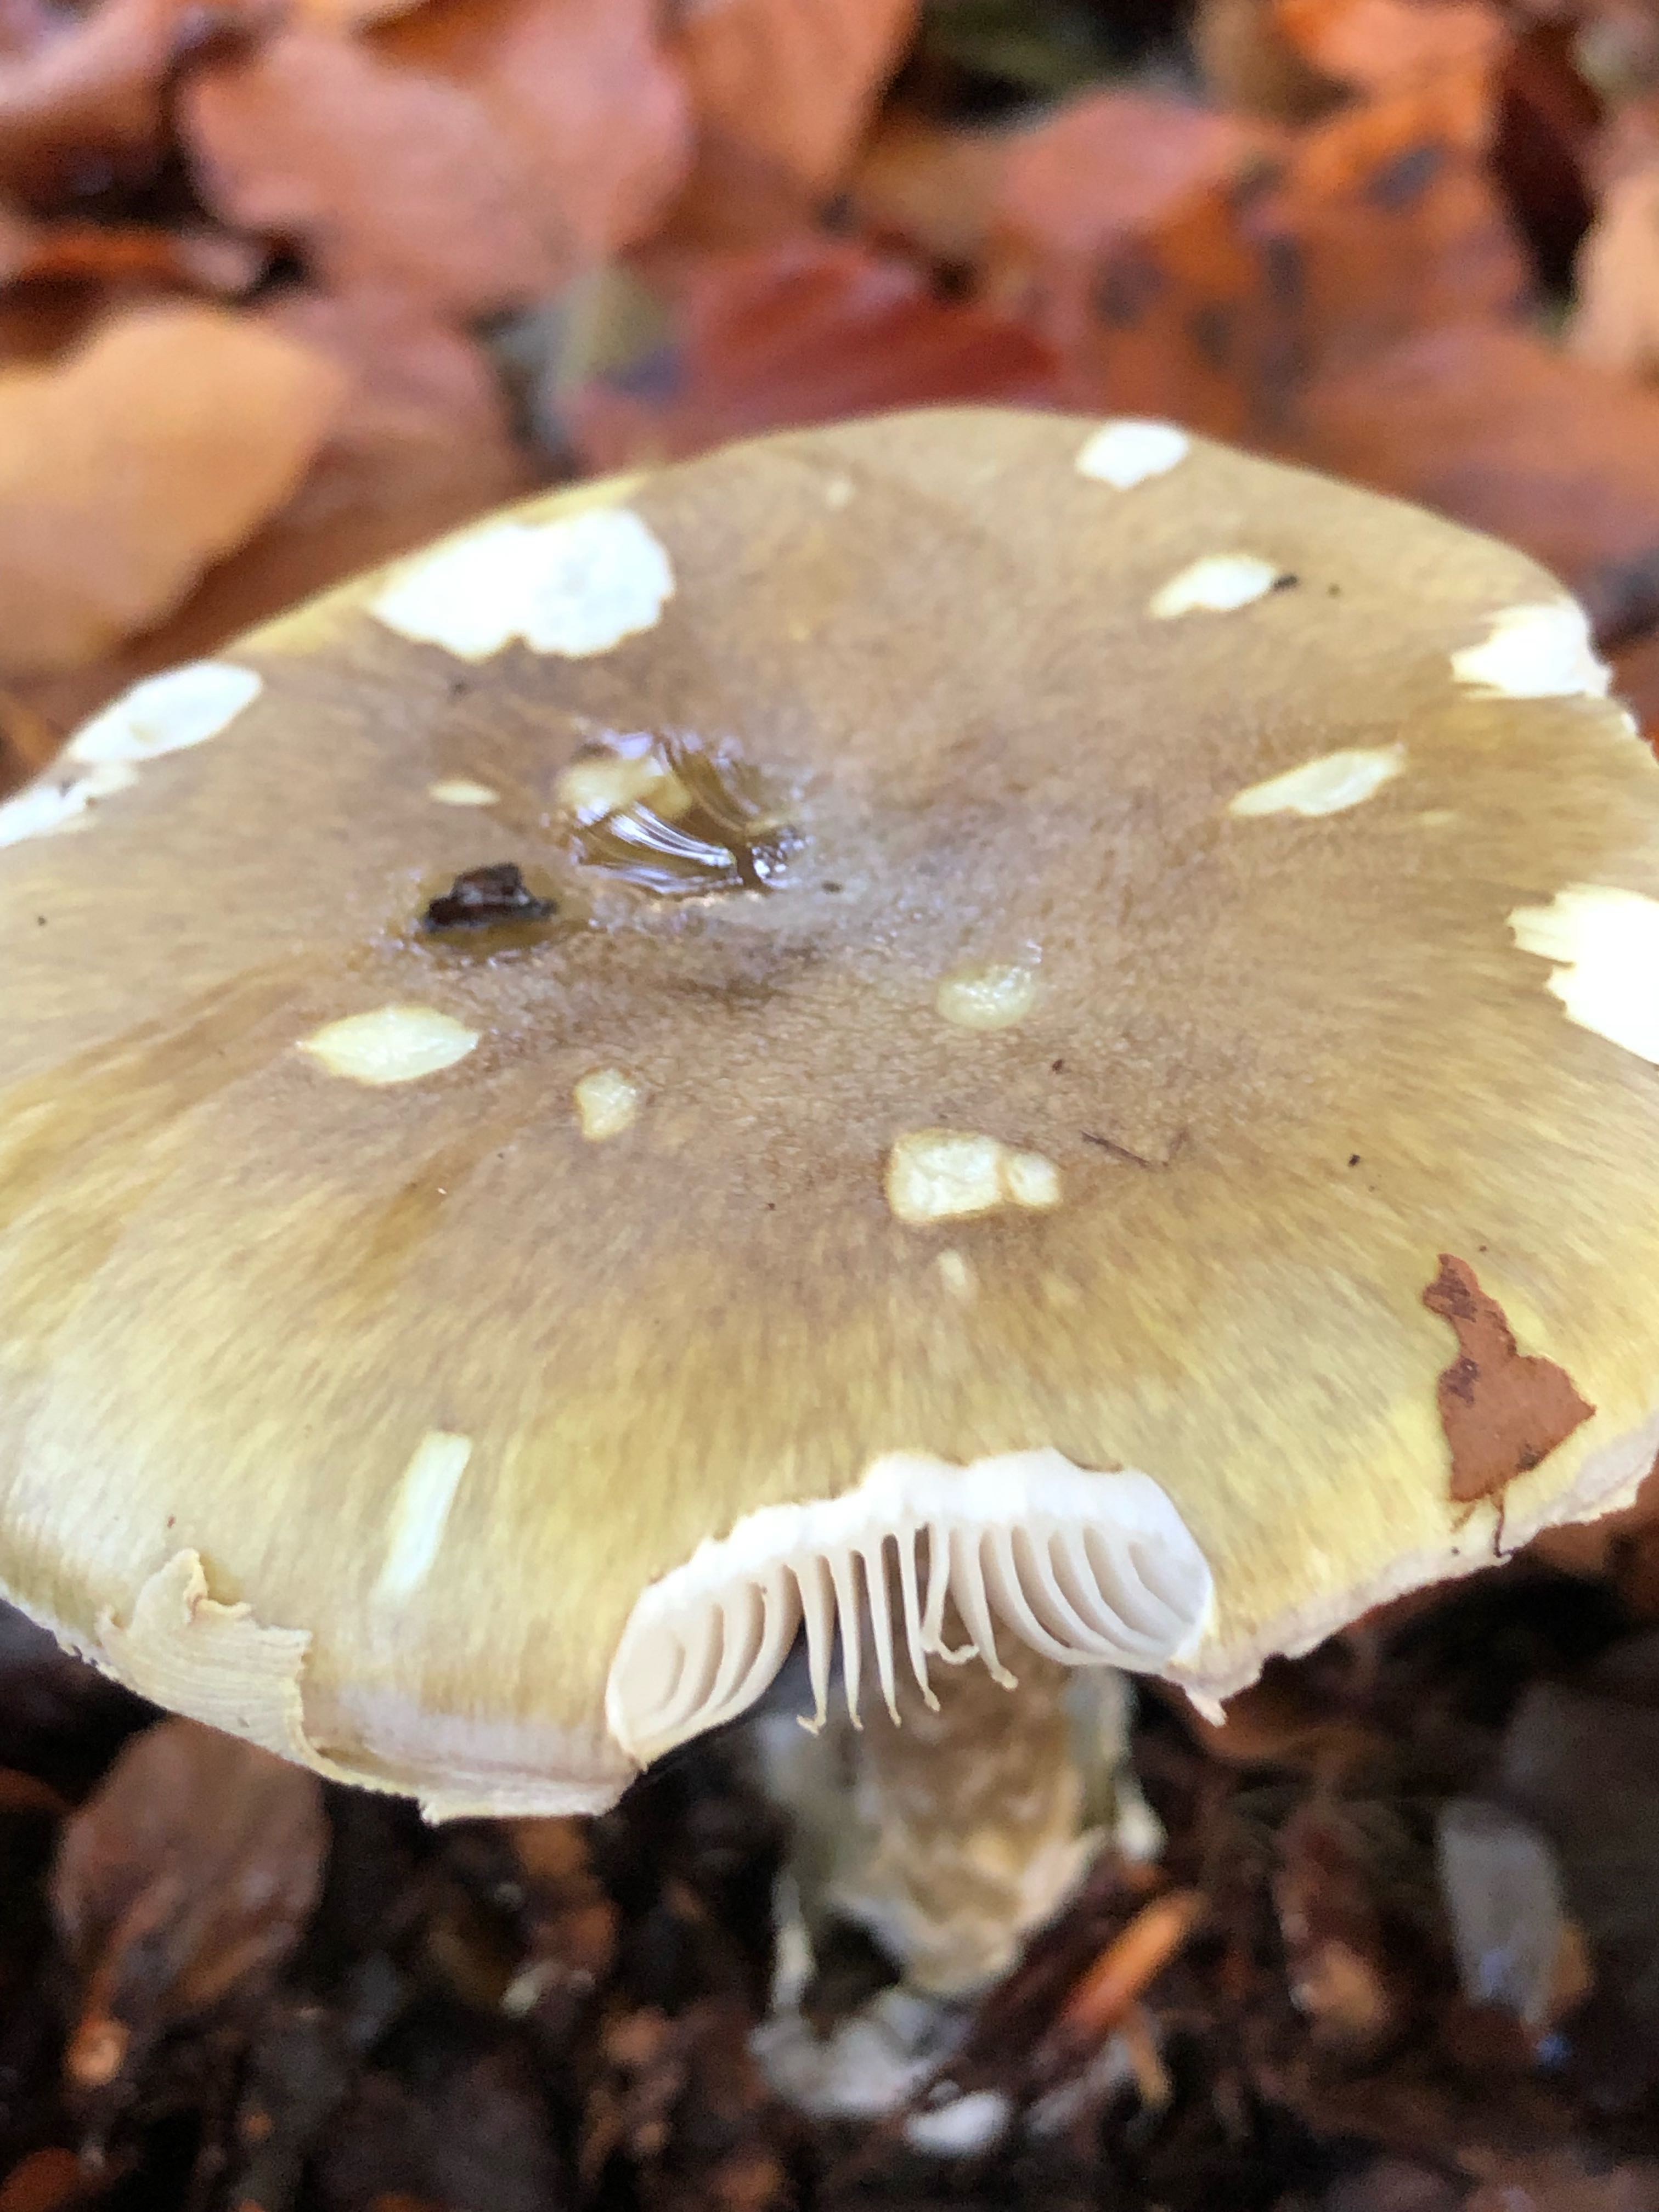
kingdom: Fungi
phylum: Basidiomycota
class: Agaricomycetes
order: Agaricales
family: Amanitaceae
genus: Amanita
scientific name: Amanita phalloides
